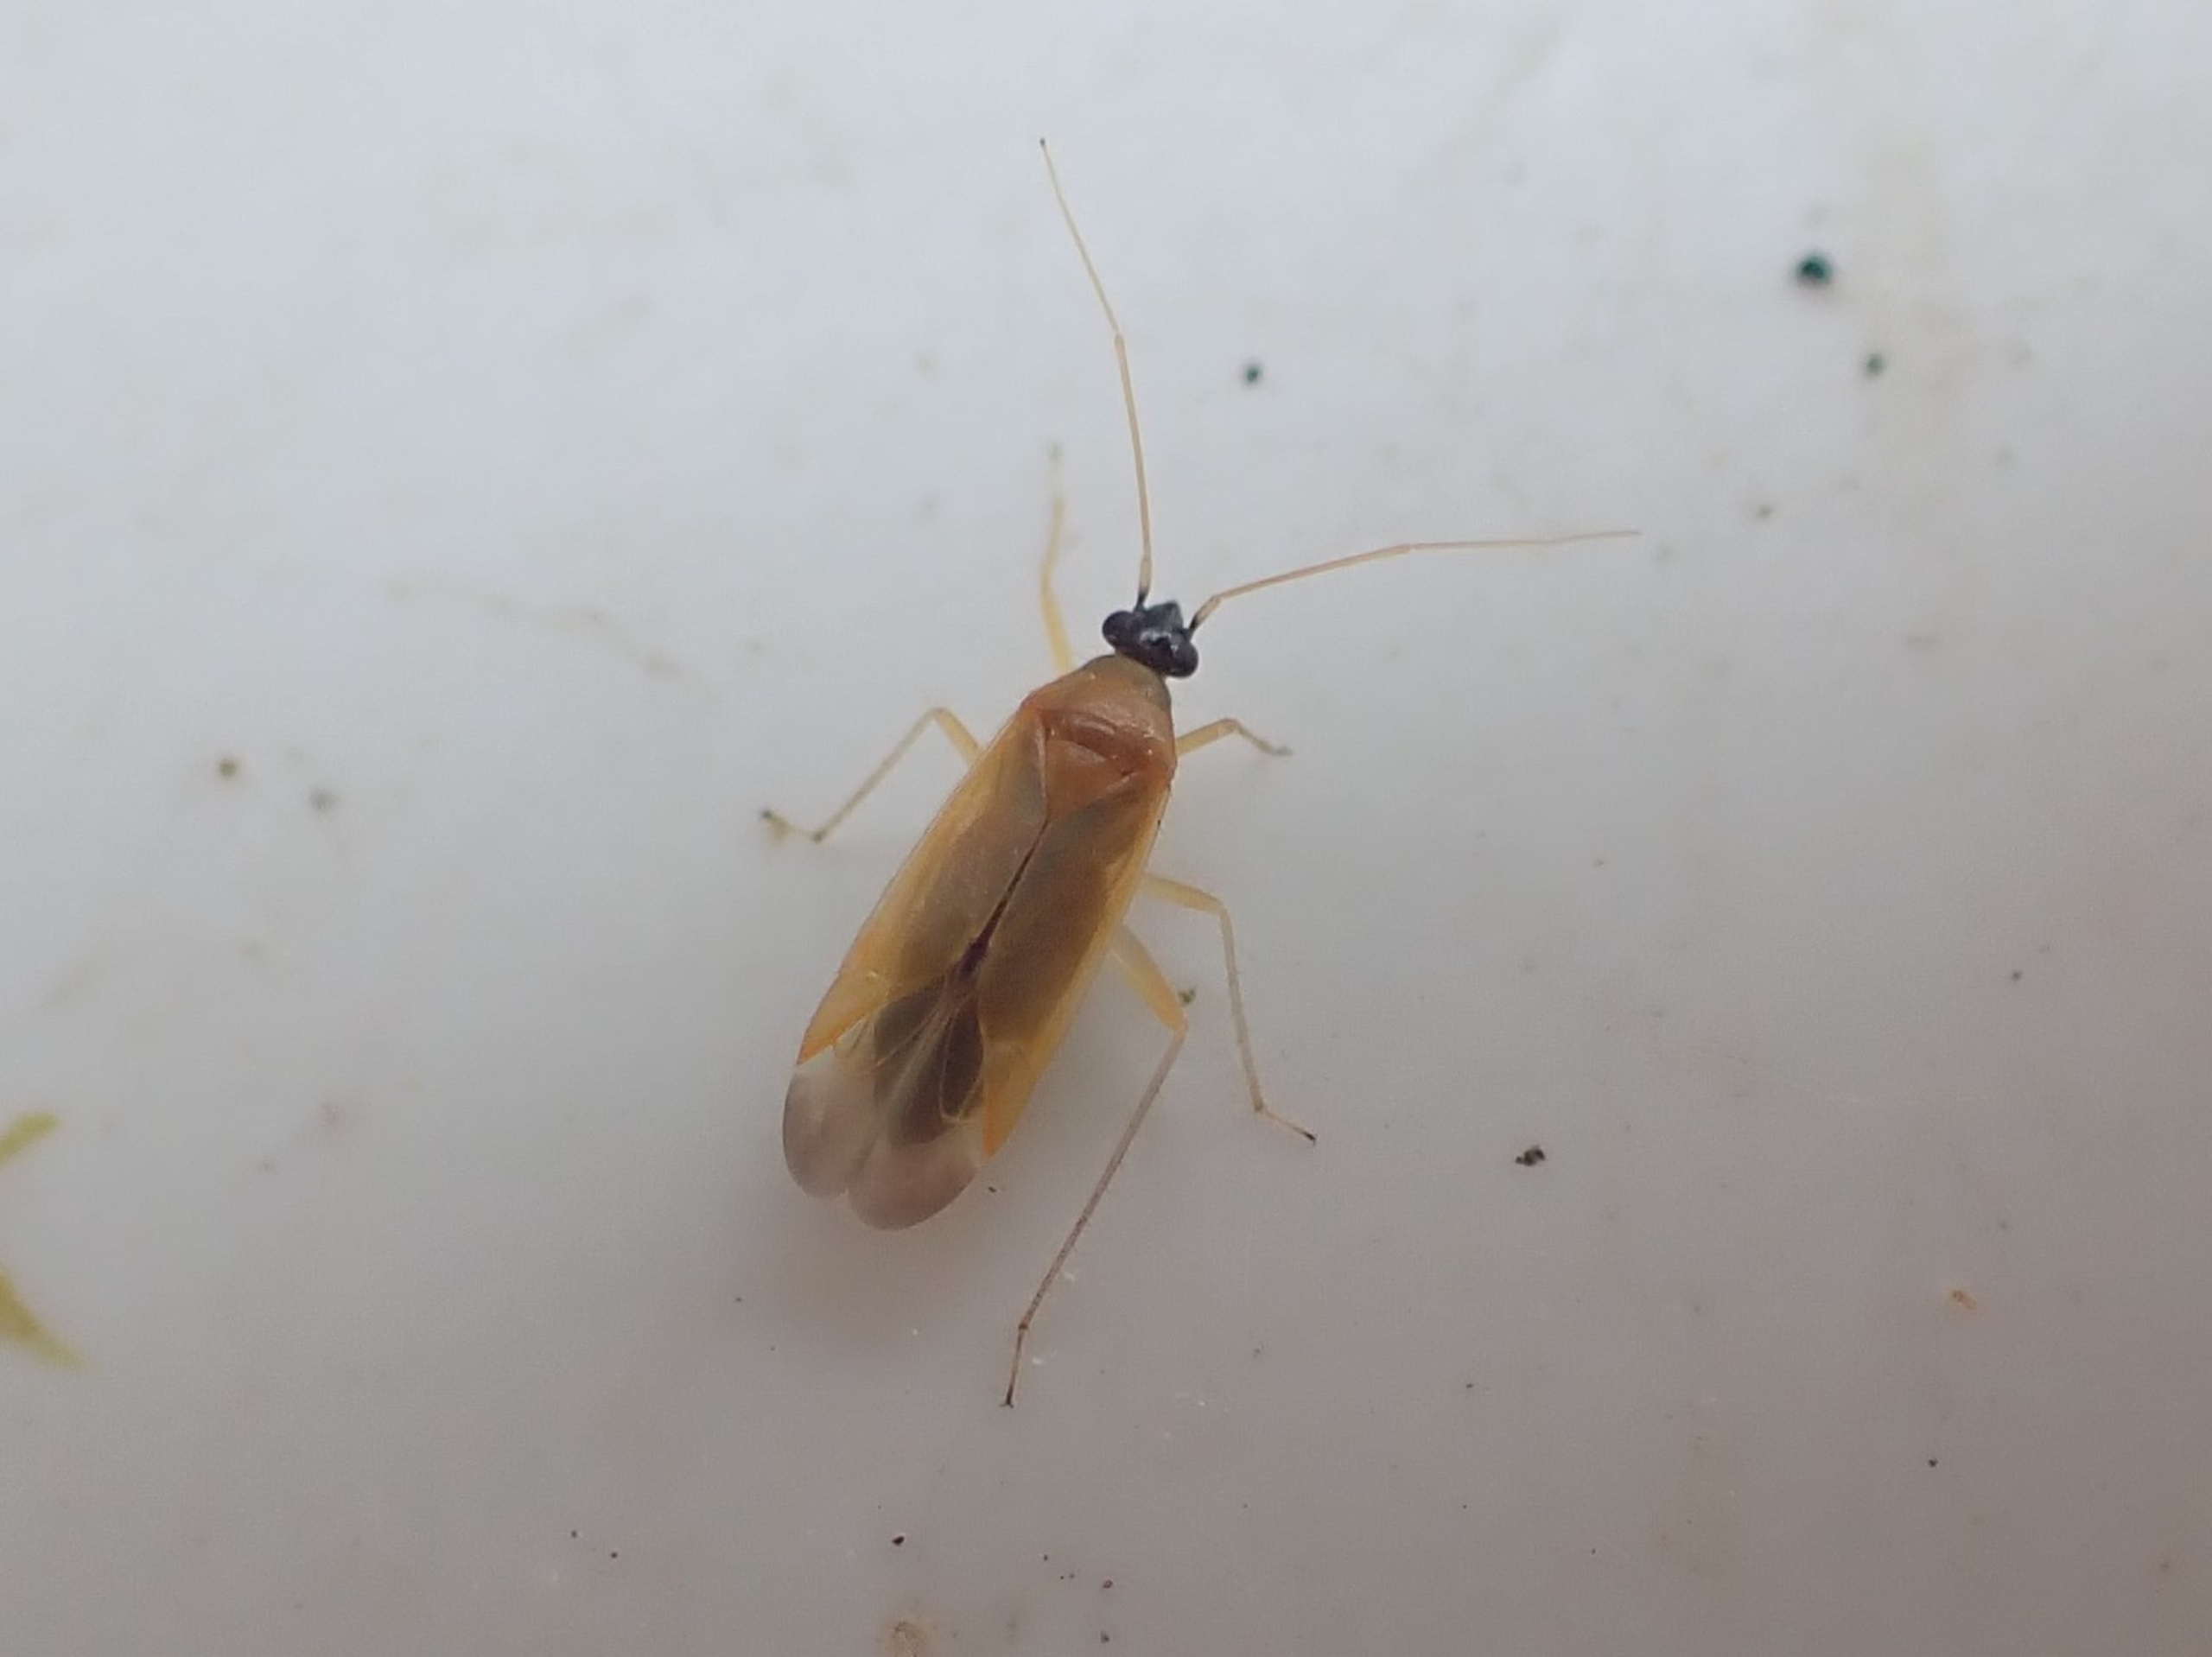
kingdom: Animalia
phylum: Arthropoda
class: Insecta
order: Hemiptera
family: Miridae
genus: Phylus
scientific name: Phylus melanocephalus
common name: Egeblomstertæge
